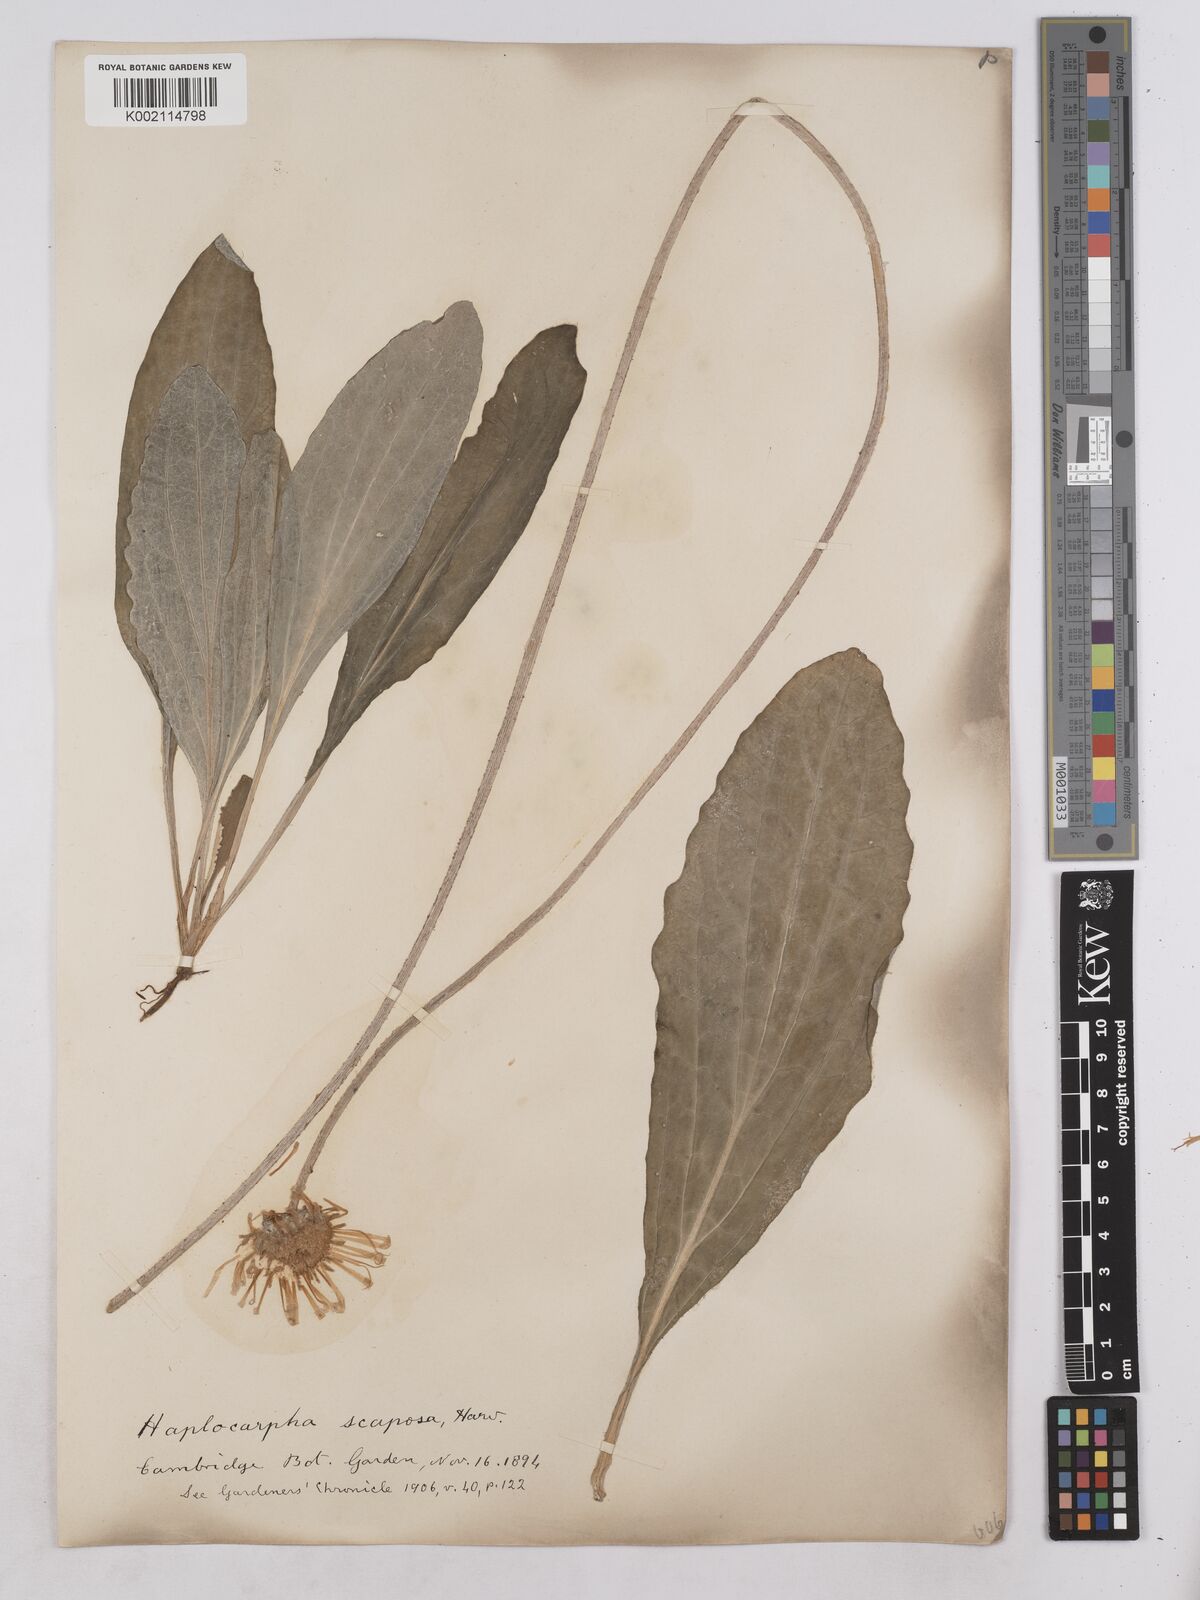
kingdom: Plantae
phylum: Tracheophyta
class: Magnoliopsida
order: Asterales
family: Asteraceae
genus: Haplocarpha
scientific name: Haplocarpha scaposa
